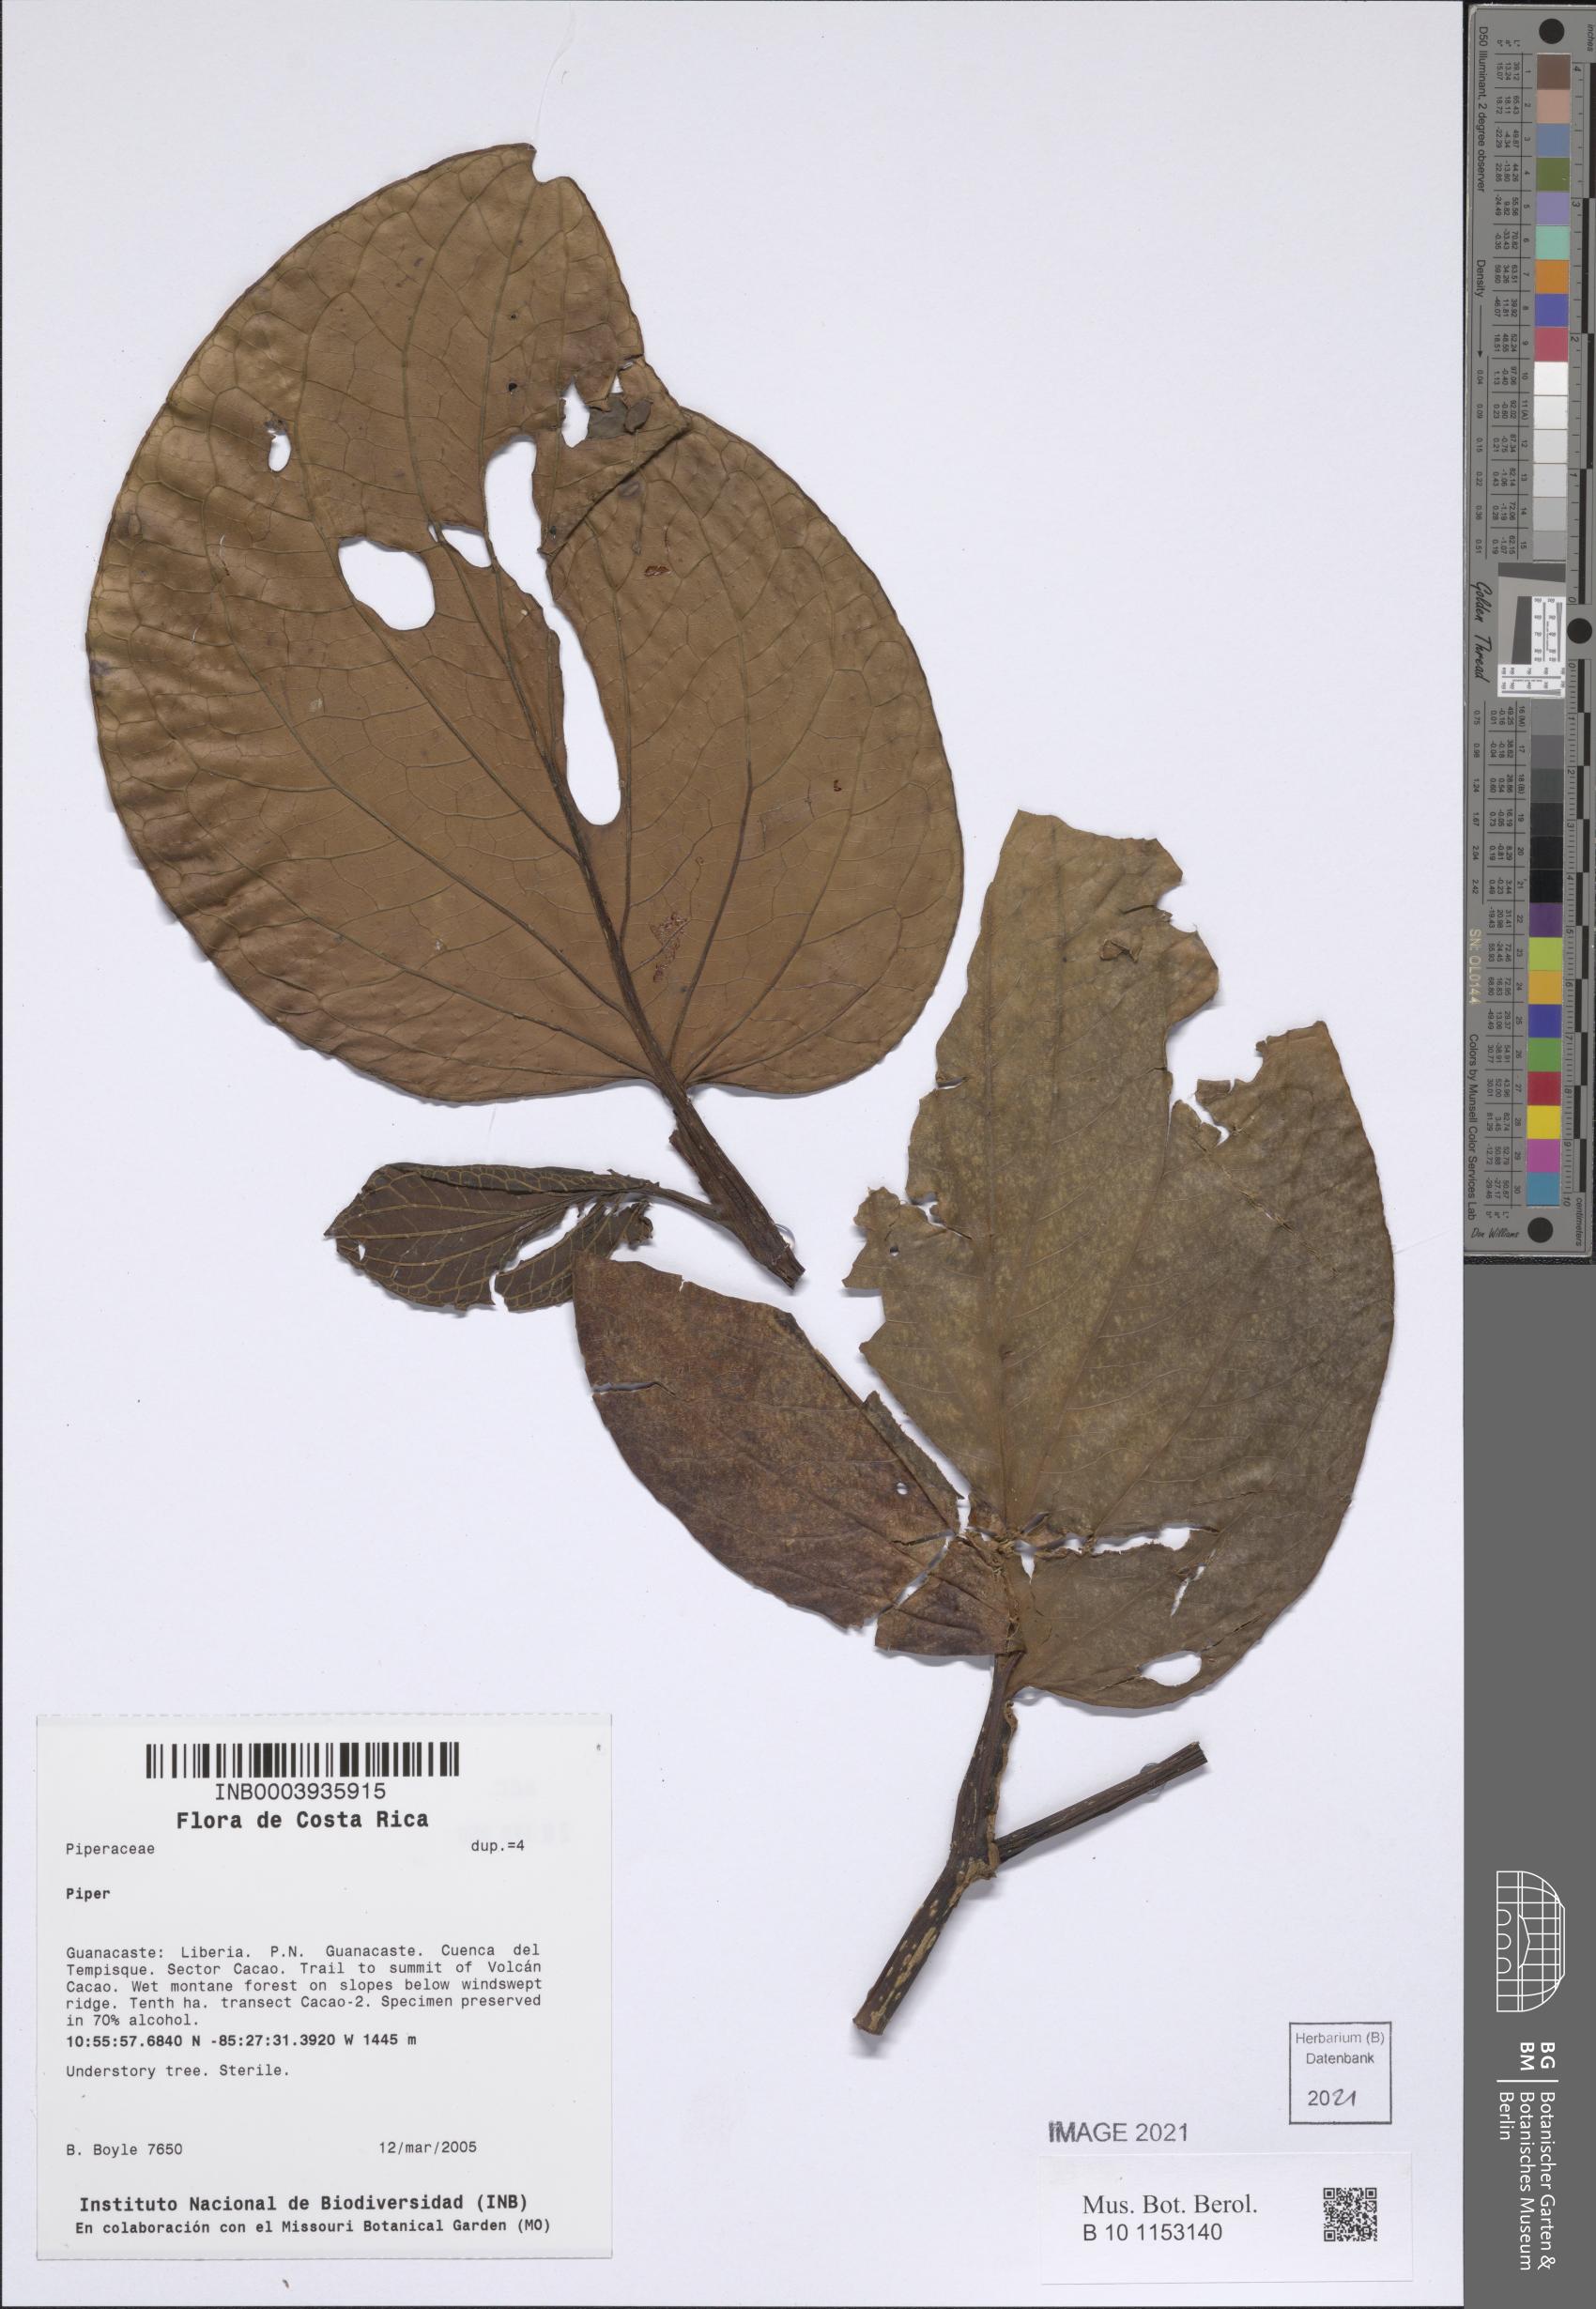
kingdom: Plantae
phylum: Tracheophyta
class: Magnoliopsida
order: Piperales
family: Piperaceae
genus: Piper
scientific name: Piper
